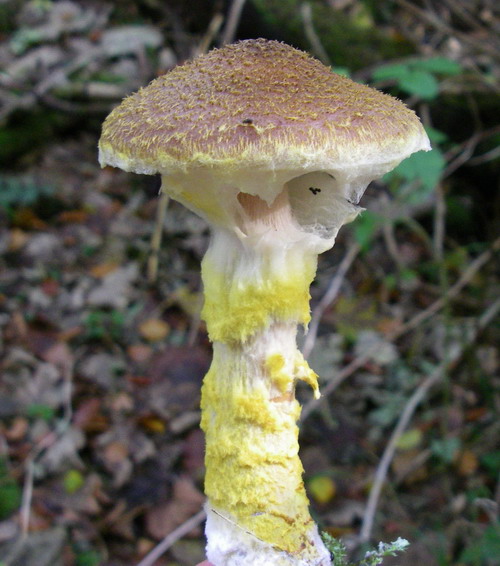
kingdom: Fungi
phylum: Basidiomycota
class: Agaricomycetes
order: Agaricales
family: Physalacriaceae
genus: Armillaria
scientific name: Armillaria lutea
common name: køllestokket honningsvamp
